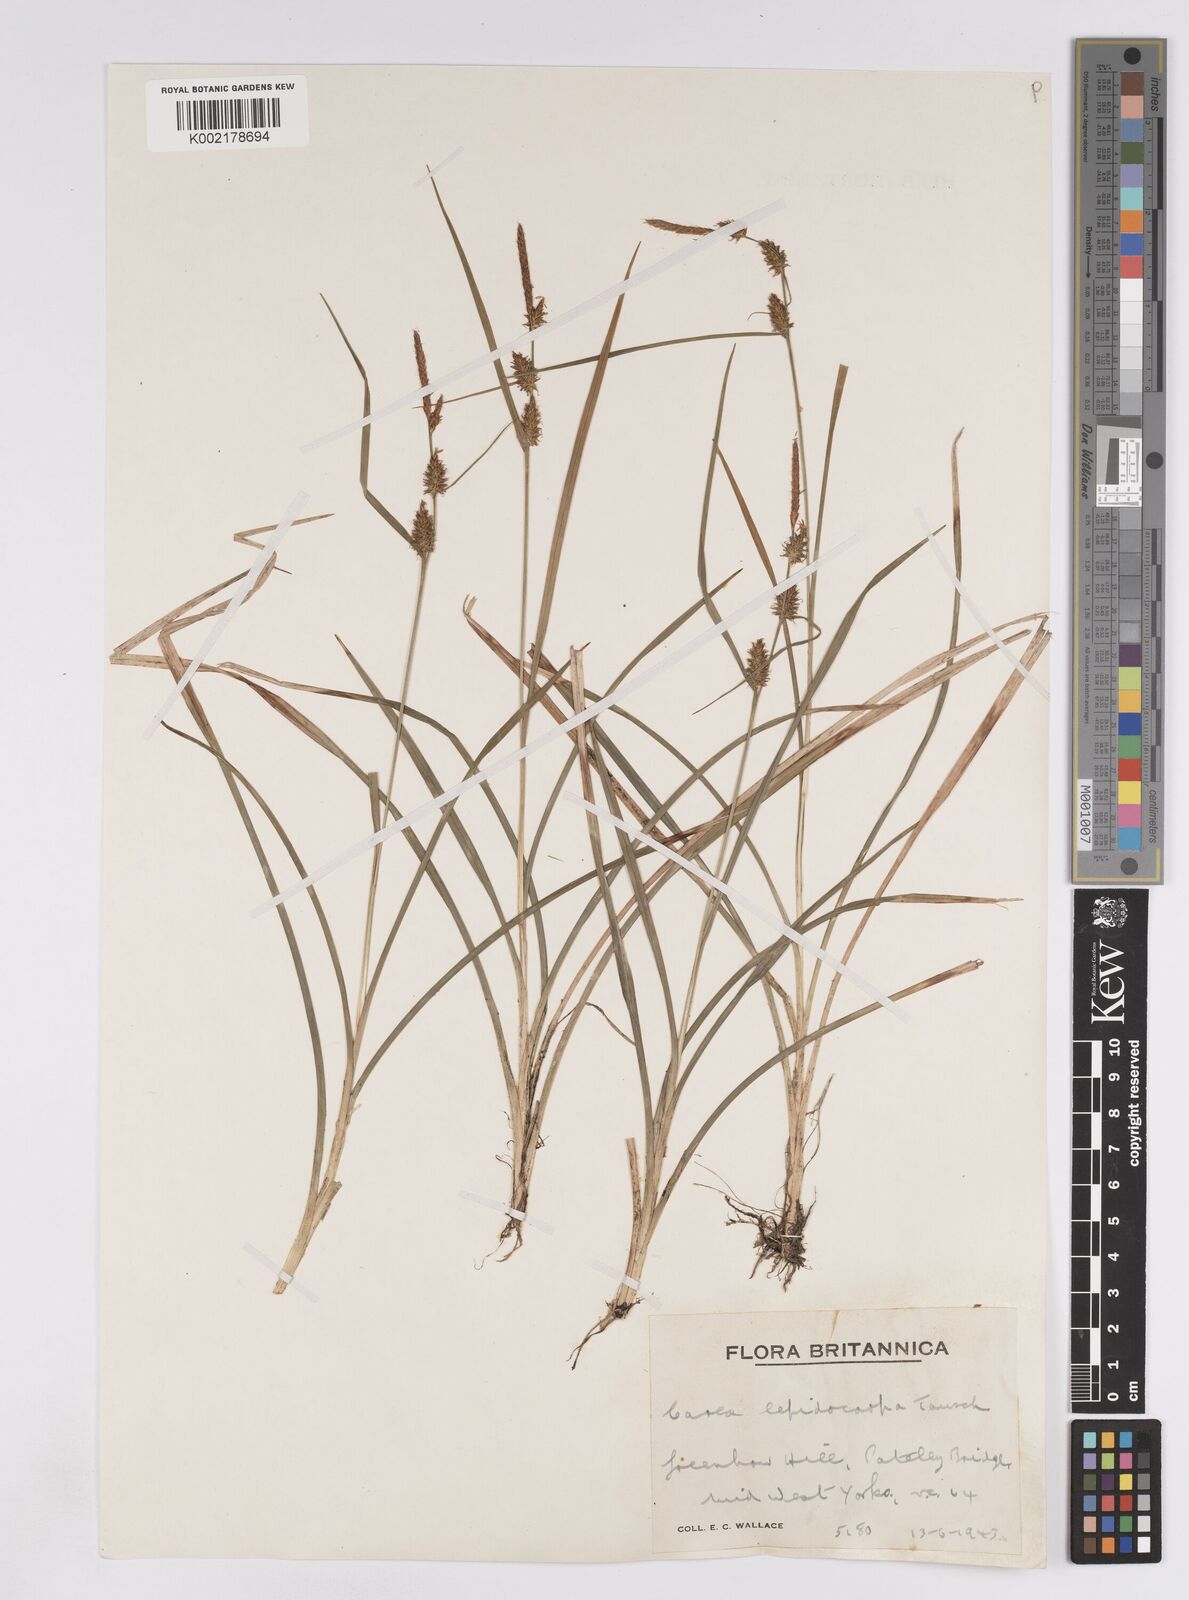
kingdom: Plantae
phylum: Tracheophyta
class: Liliopsida
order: Poales
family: Cyperaceae
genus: Carex
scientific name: Carex lepidocarpa
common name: Long-stalked yellow-sedge
